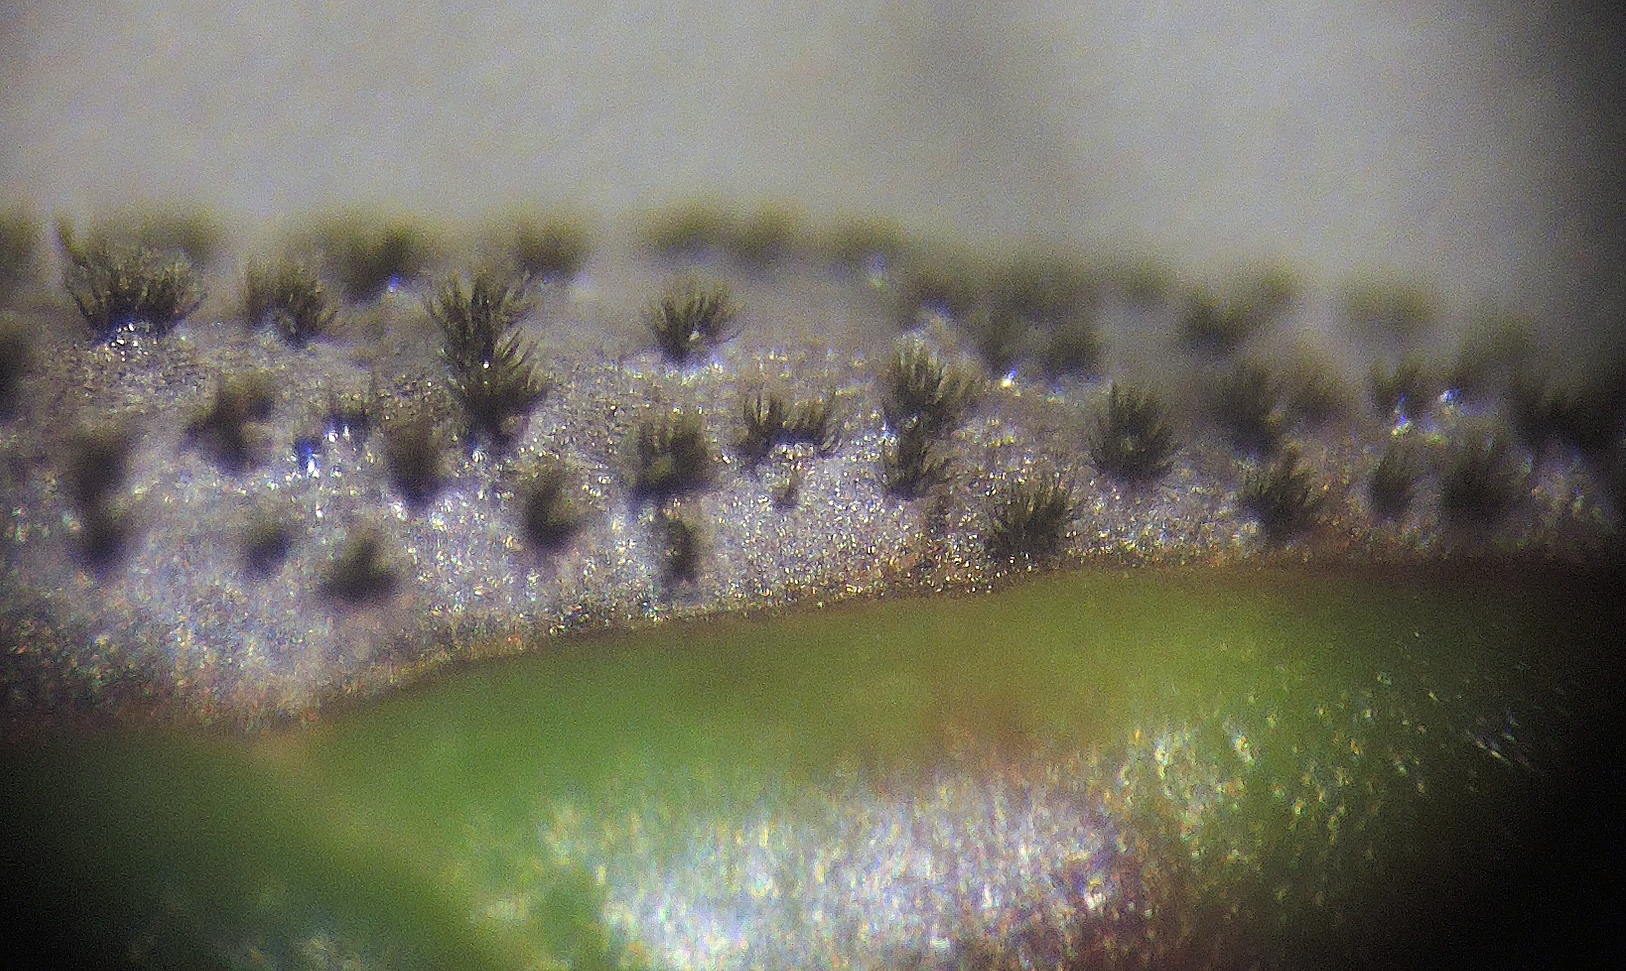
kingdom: Fungi
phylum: Ascomycota
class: Dothideomycetes
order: Venturiales
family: Venturiaceae
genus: Gibbera
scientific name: Gibbera andromedae
